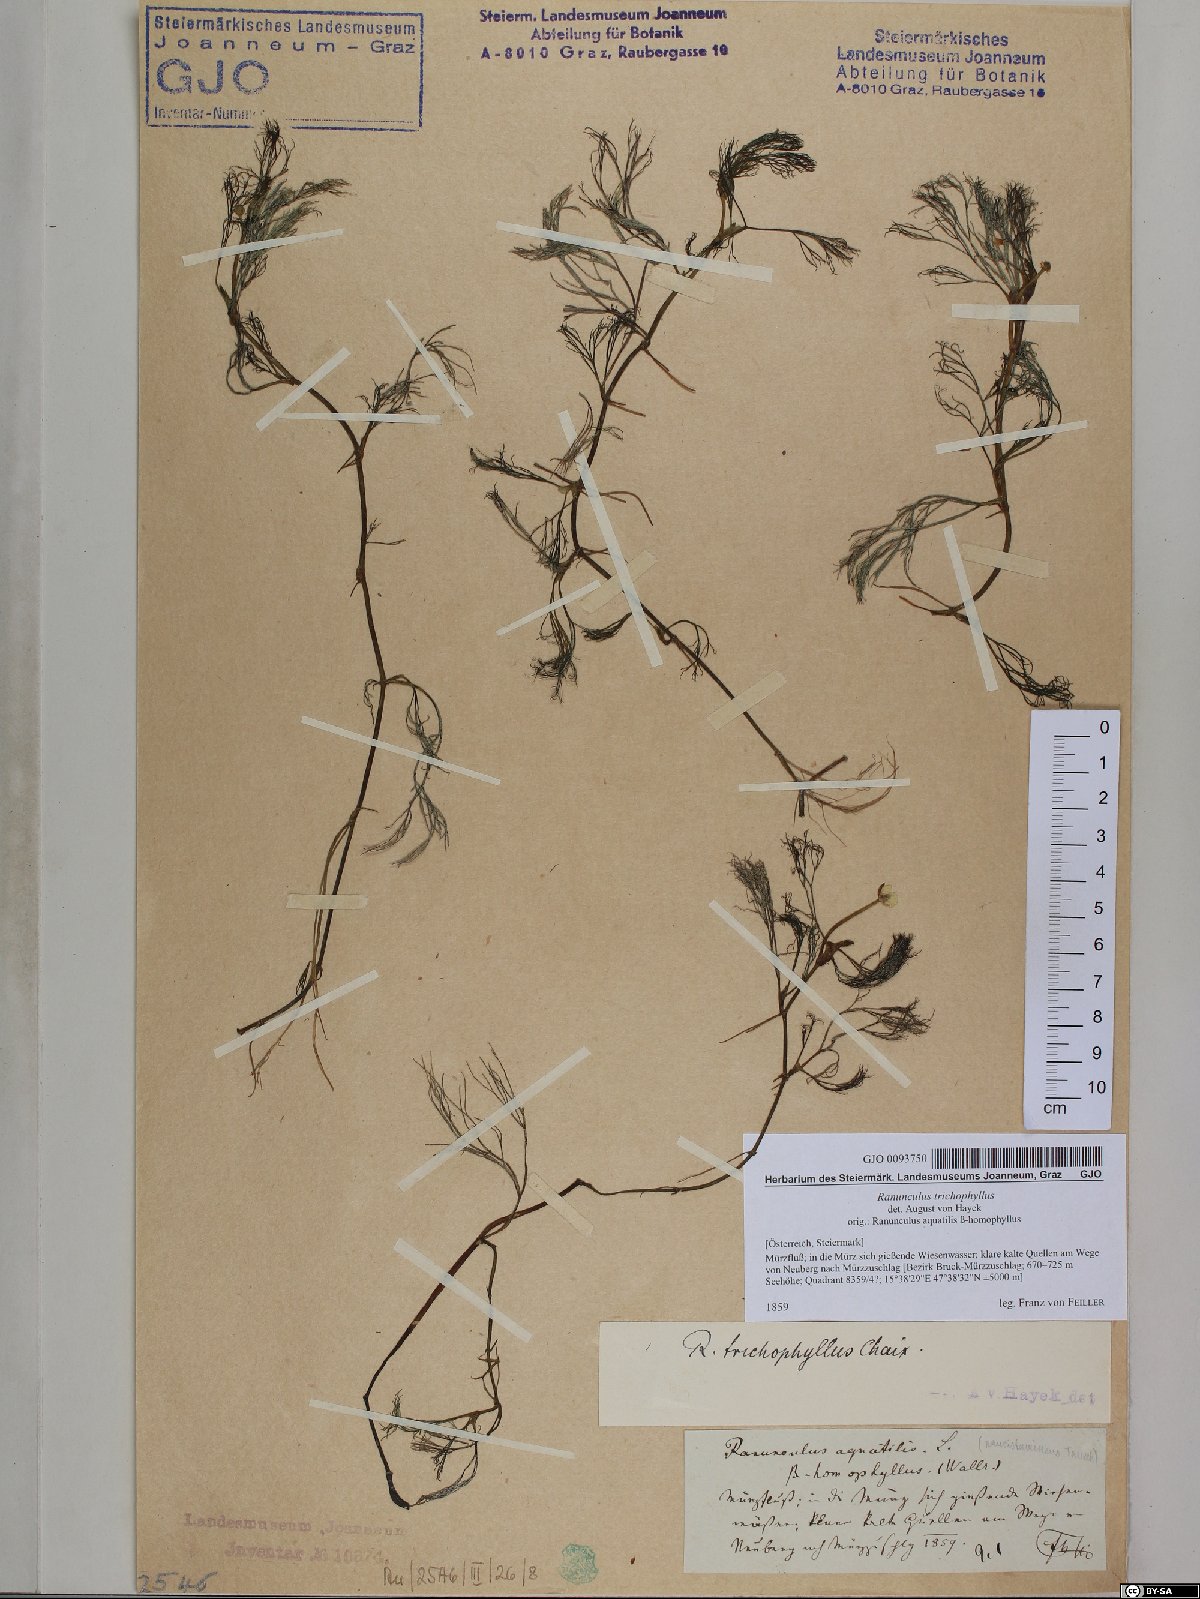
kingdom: Plantae
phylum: Tracheophyta
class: Magnoliopsida
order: Ranunculales
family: Ranunculaceae
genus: Ranunculus
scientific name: Ranunculus trichophyllus
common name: Thread-leaved water-crowfoot
